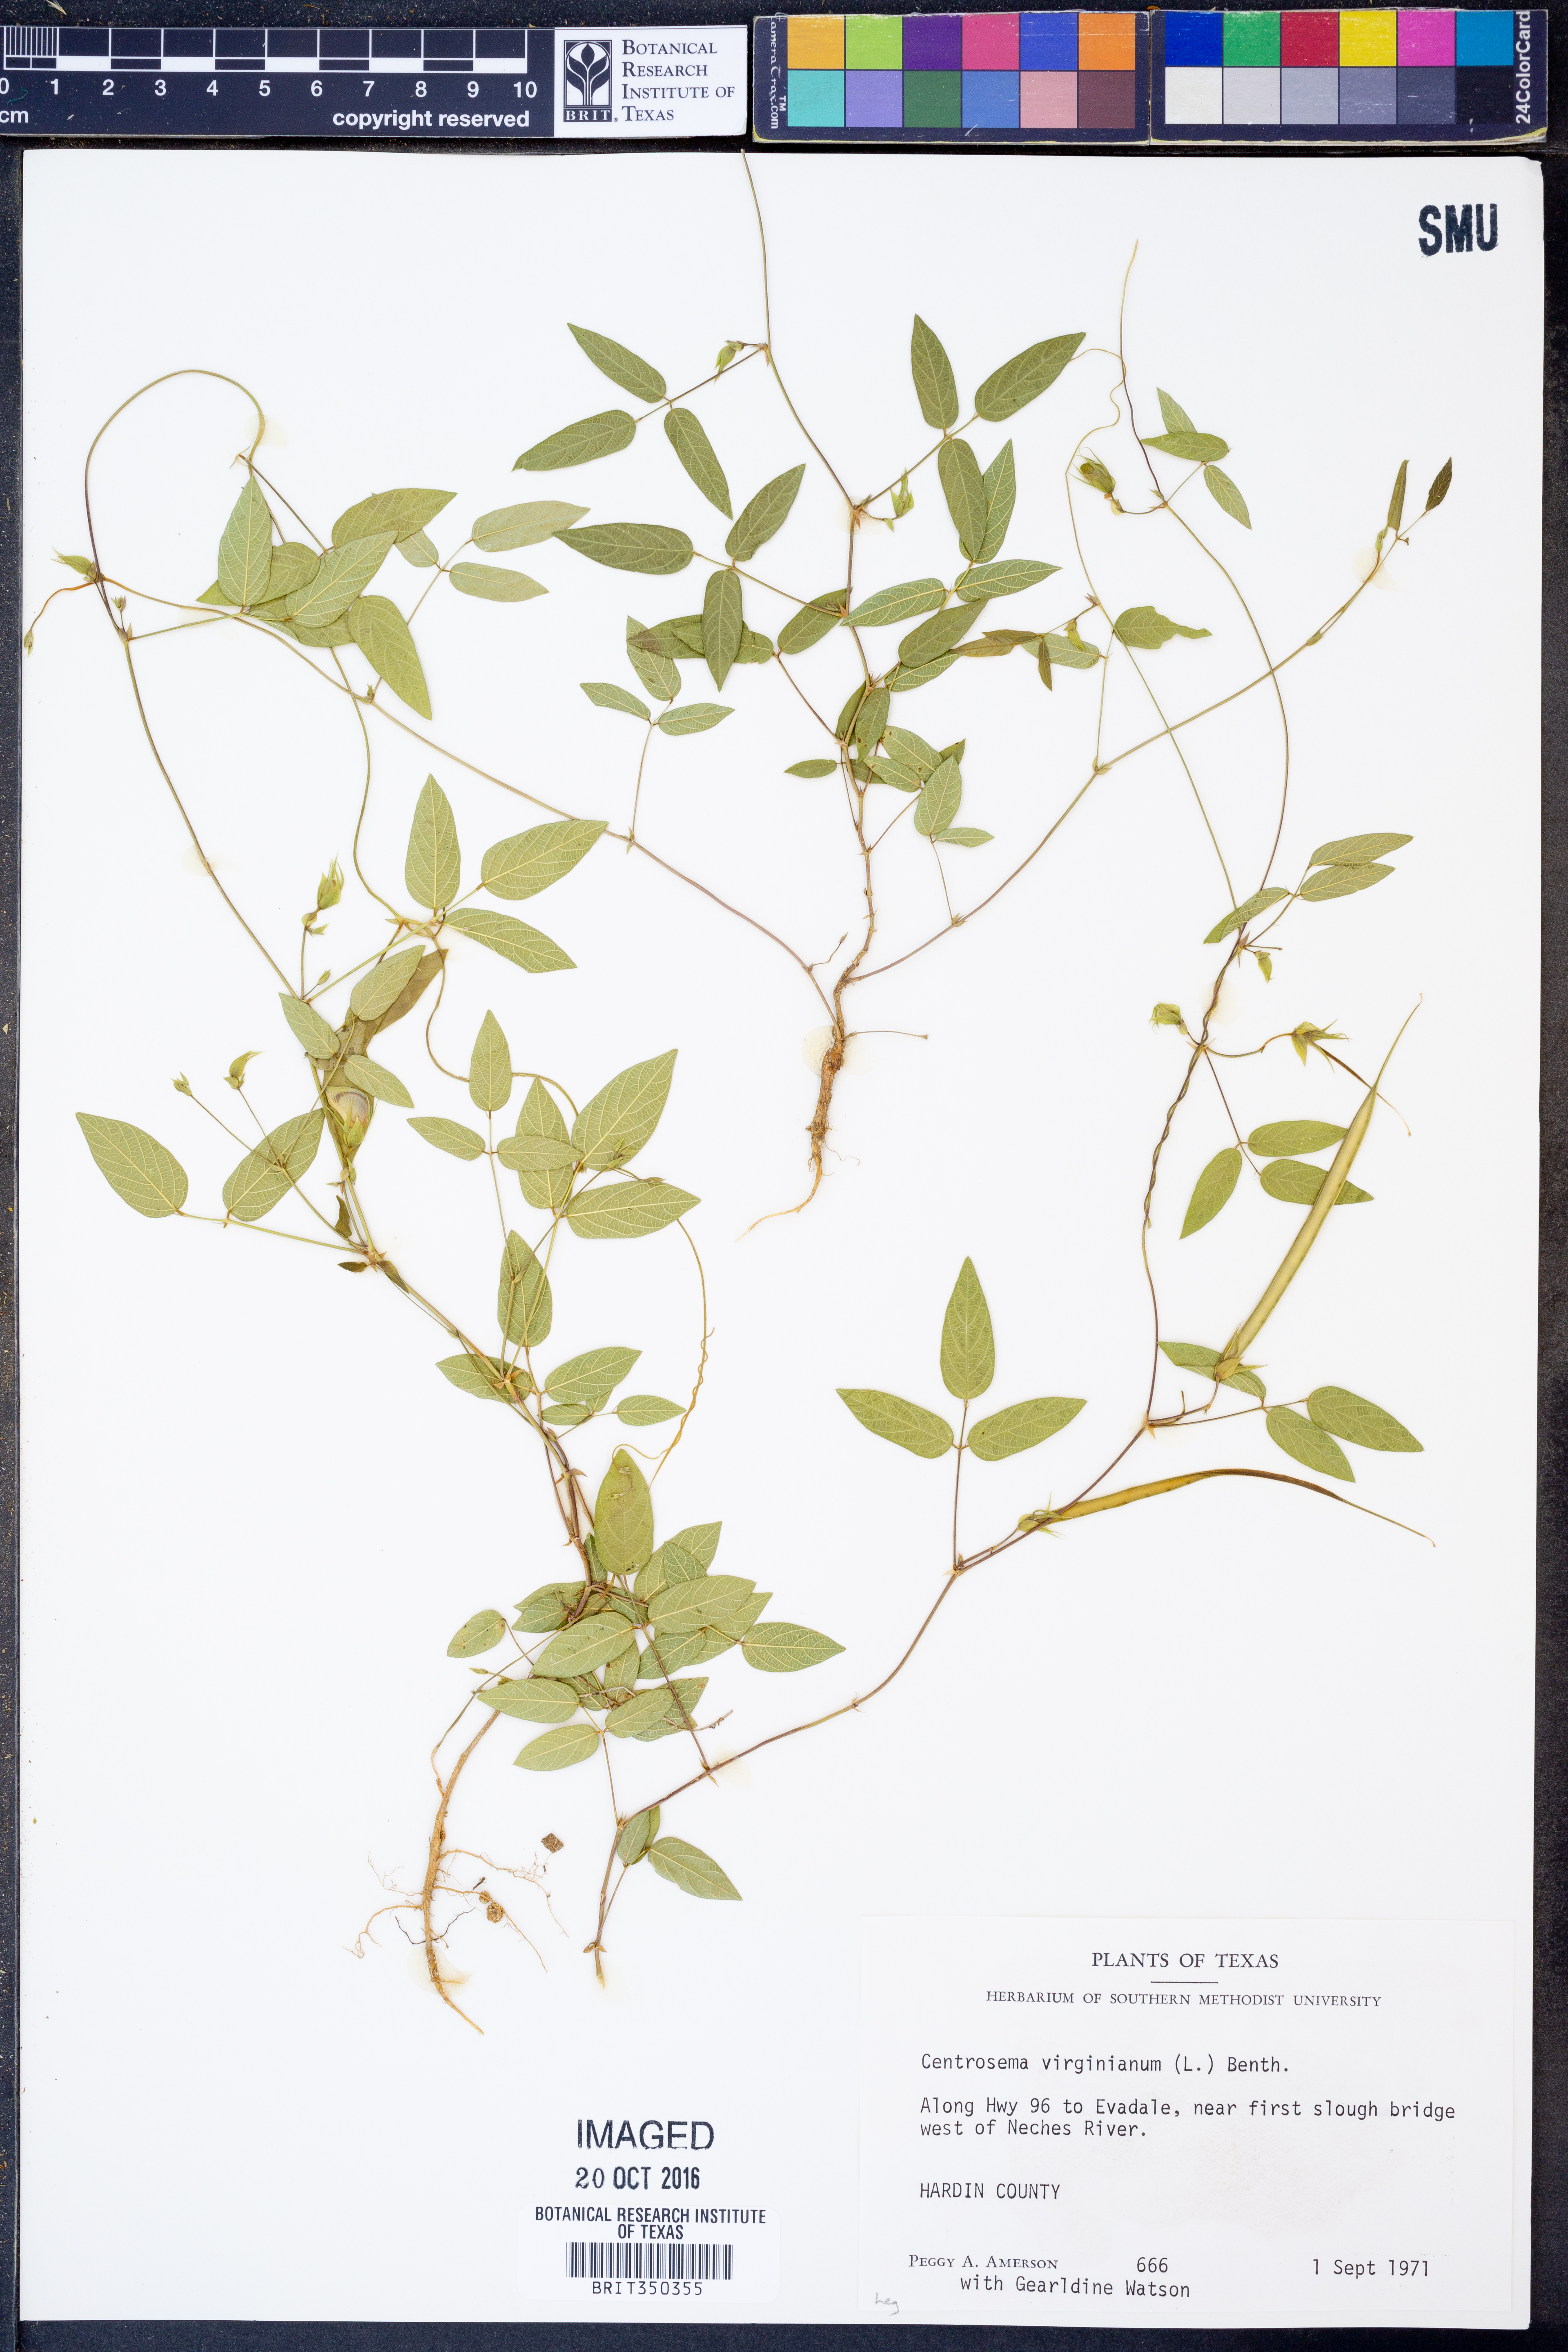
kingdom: Plantae
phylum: Tracheophyta
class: Magnoliopsida
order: Fabales
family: Fabaceae
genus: Centrosema
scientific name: Centrosema virginianum
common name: Butterfly-pea
